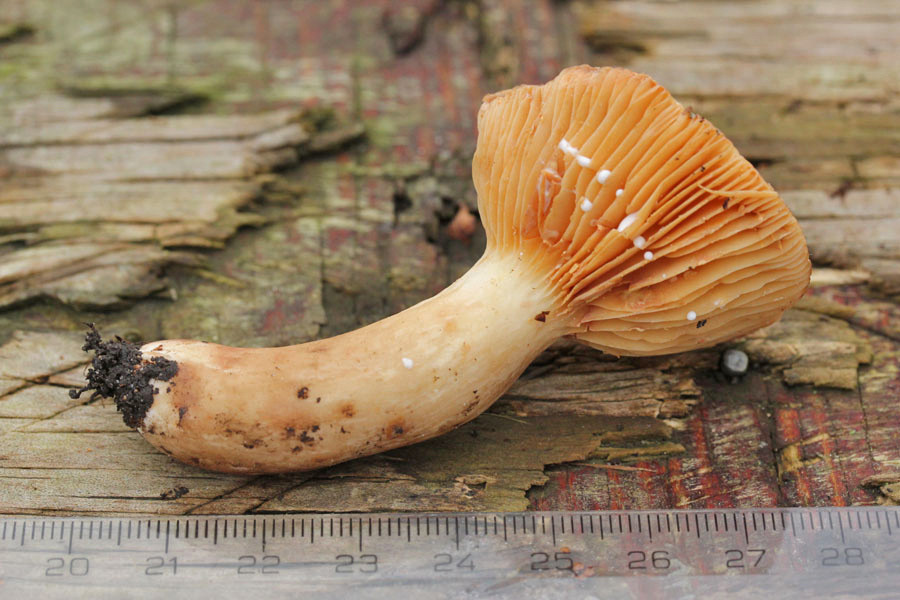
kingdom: Fungi
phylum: Basidiomycota
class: Agaricomycetes
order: Russulales
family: Russulaceae
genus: Lactarius
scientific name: Lactarius pterosporus
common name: vingesporet mælkehat
